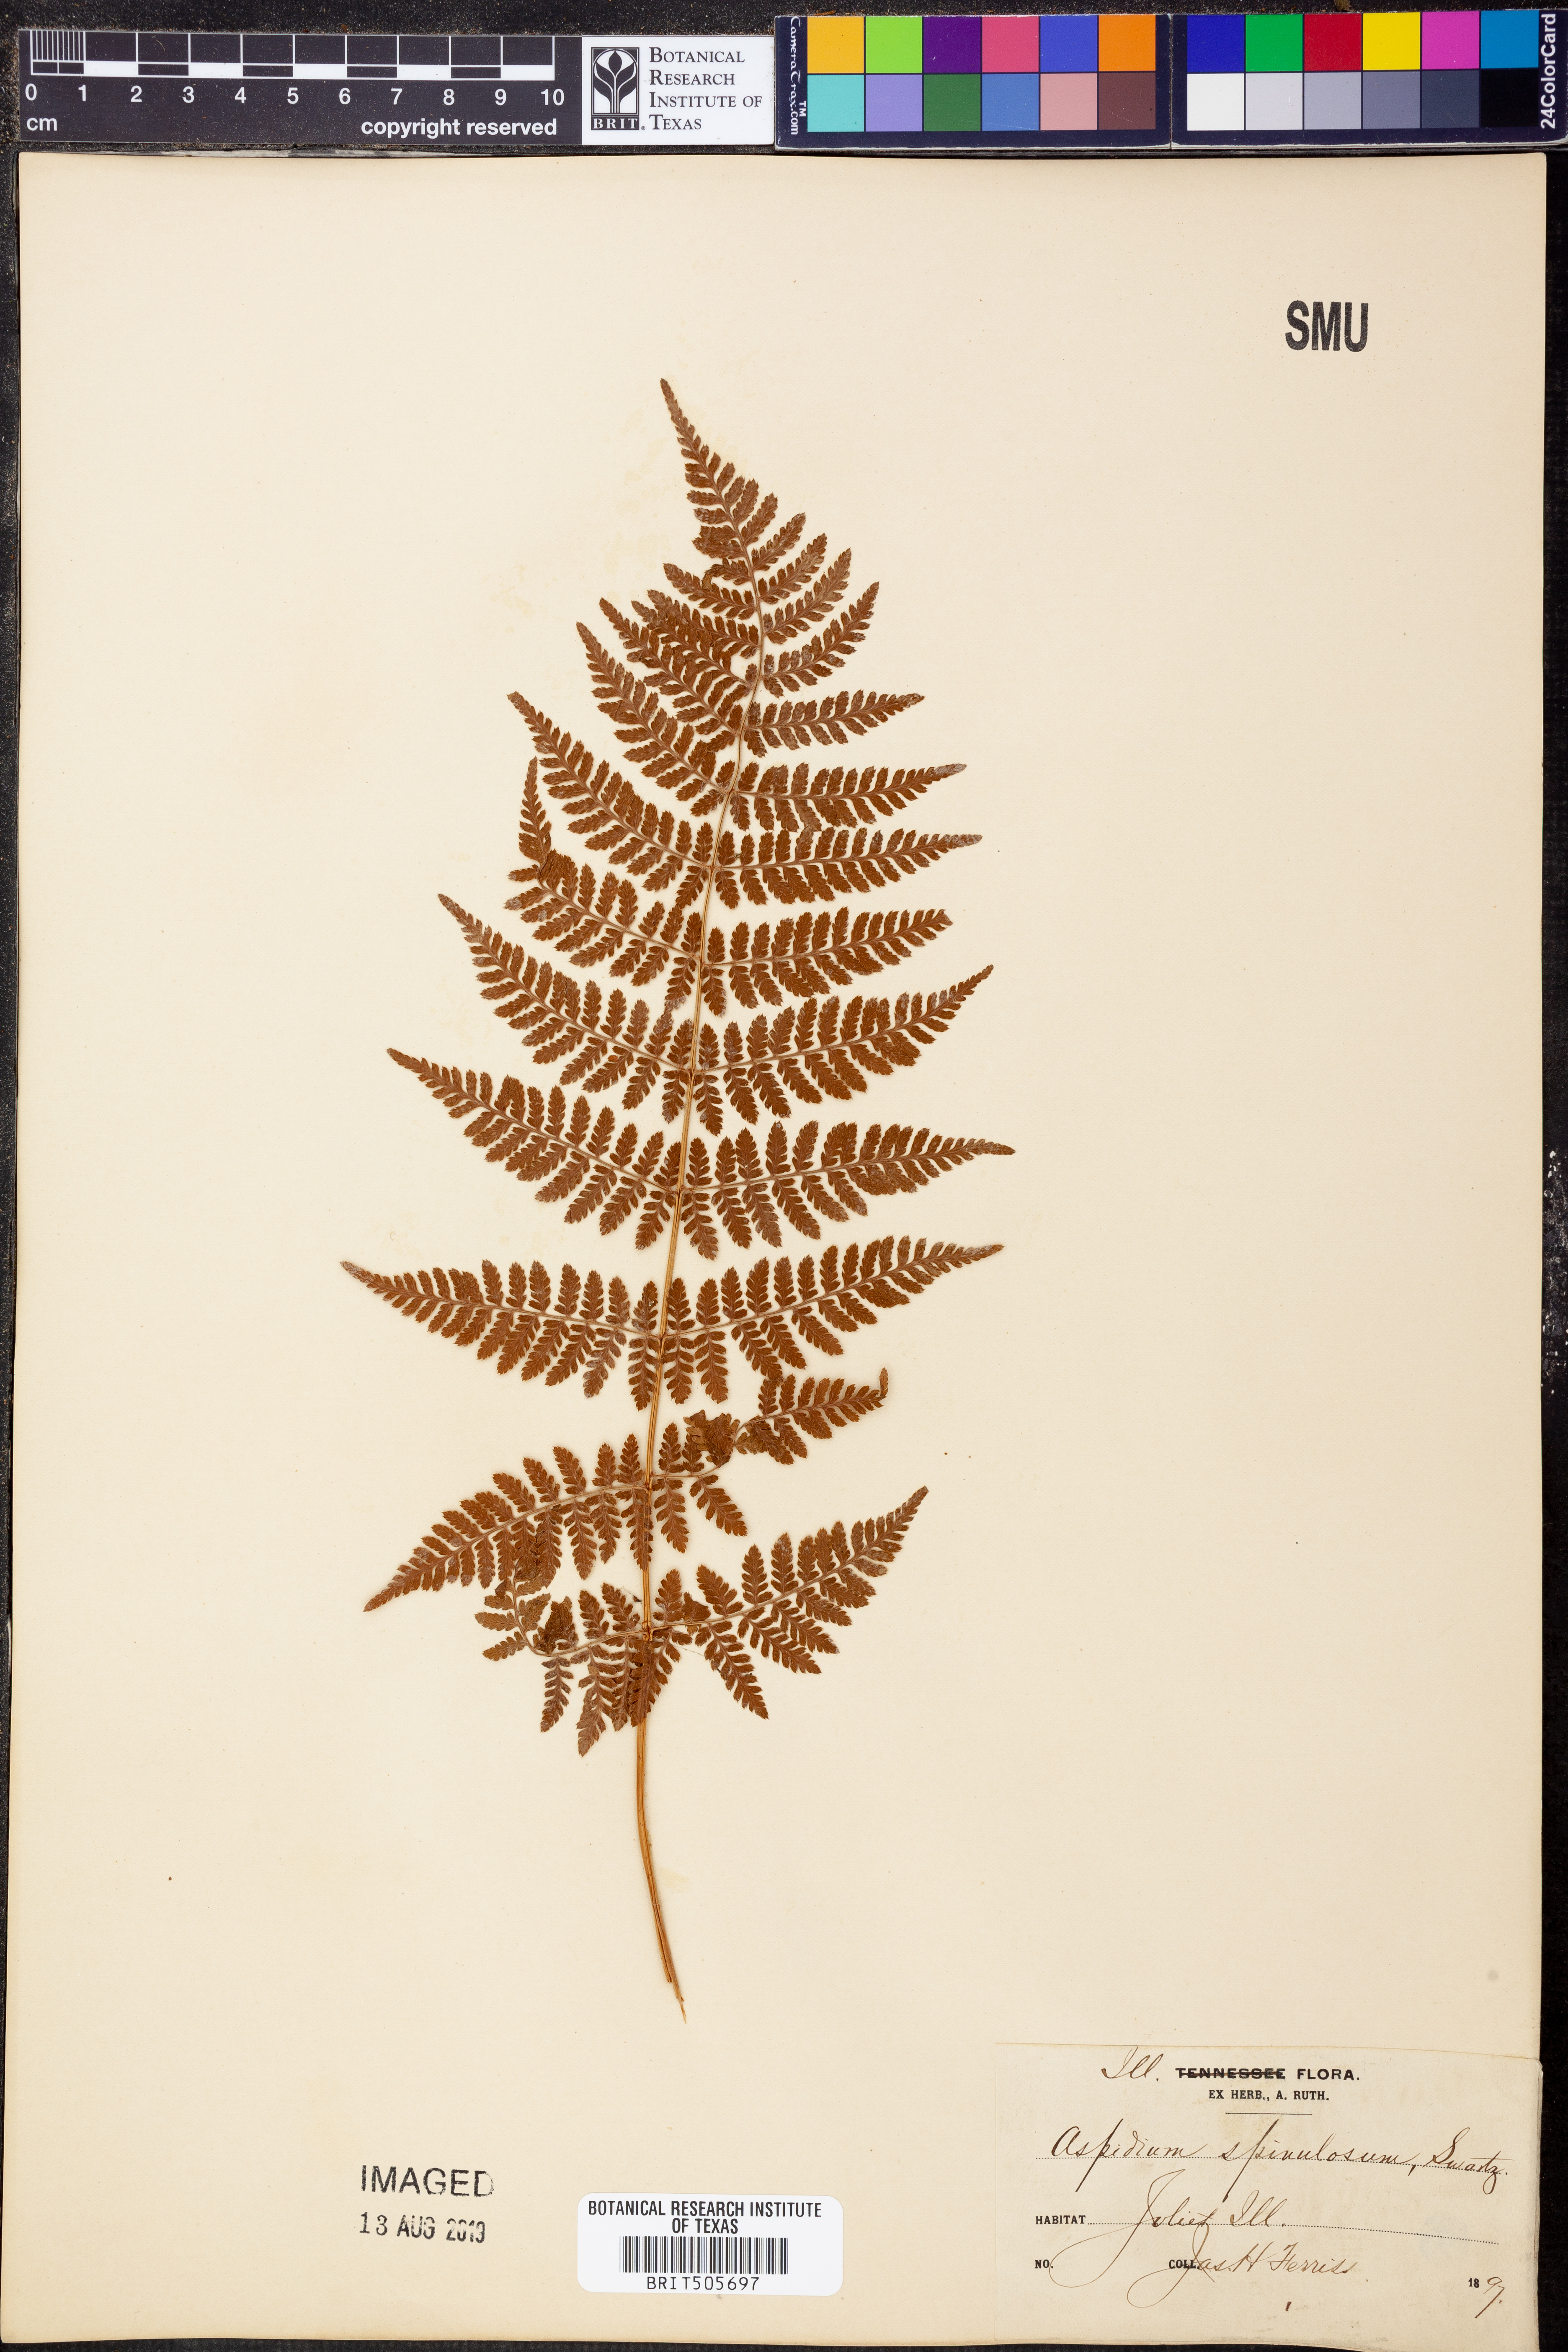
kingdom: Plantae
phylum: Tracheophyta
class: Polypodiopsida
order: Polypodiales
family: Dryopteridaceae
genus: Dryopteris
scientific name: Dryopteris carthusiana
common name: Narrow buckler-fern
